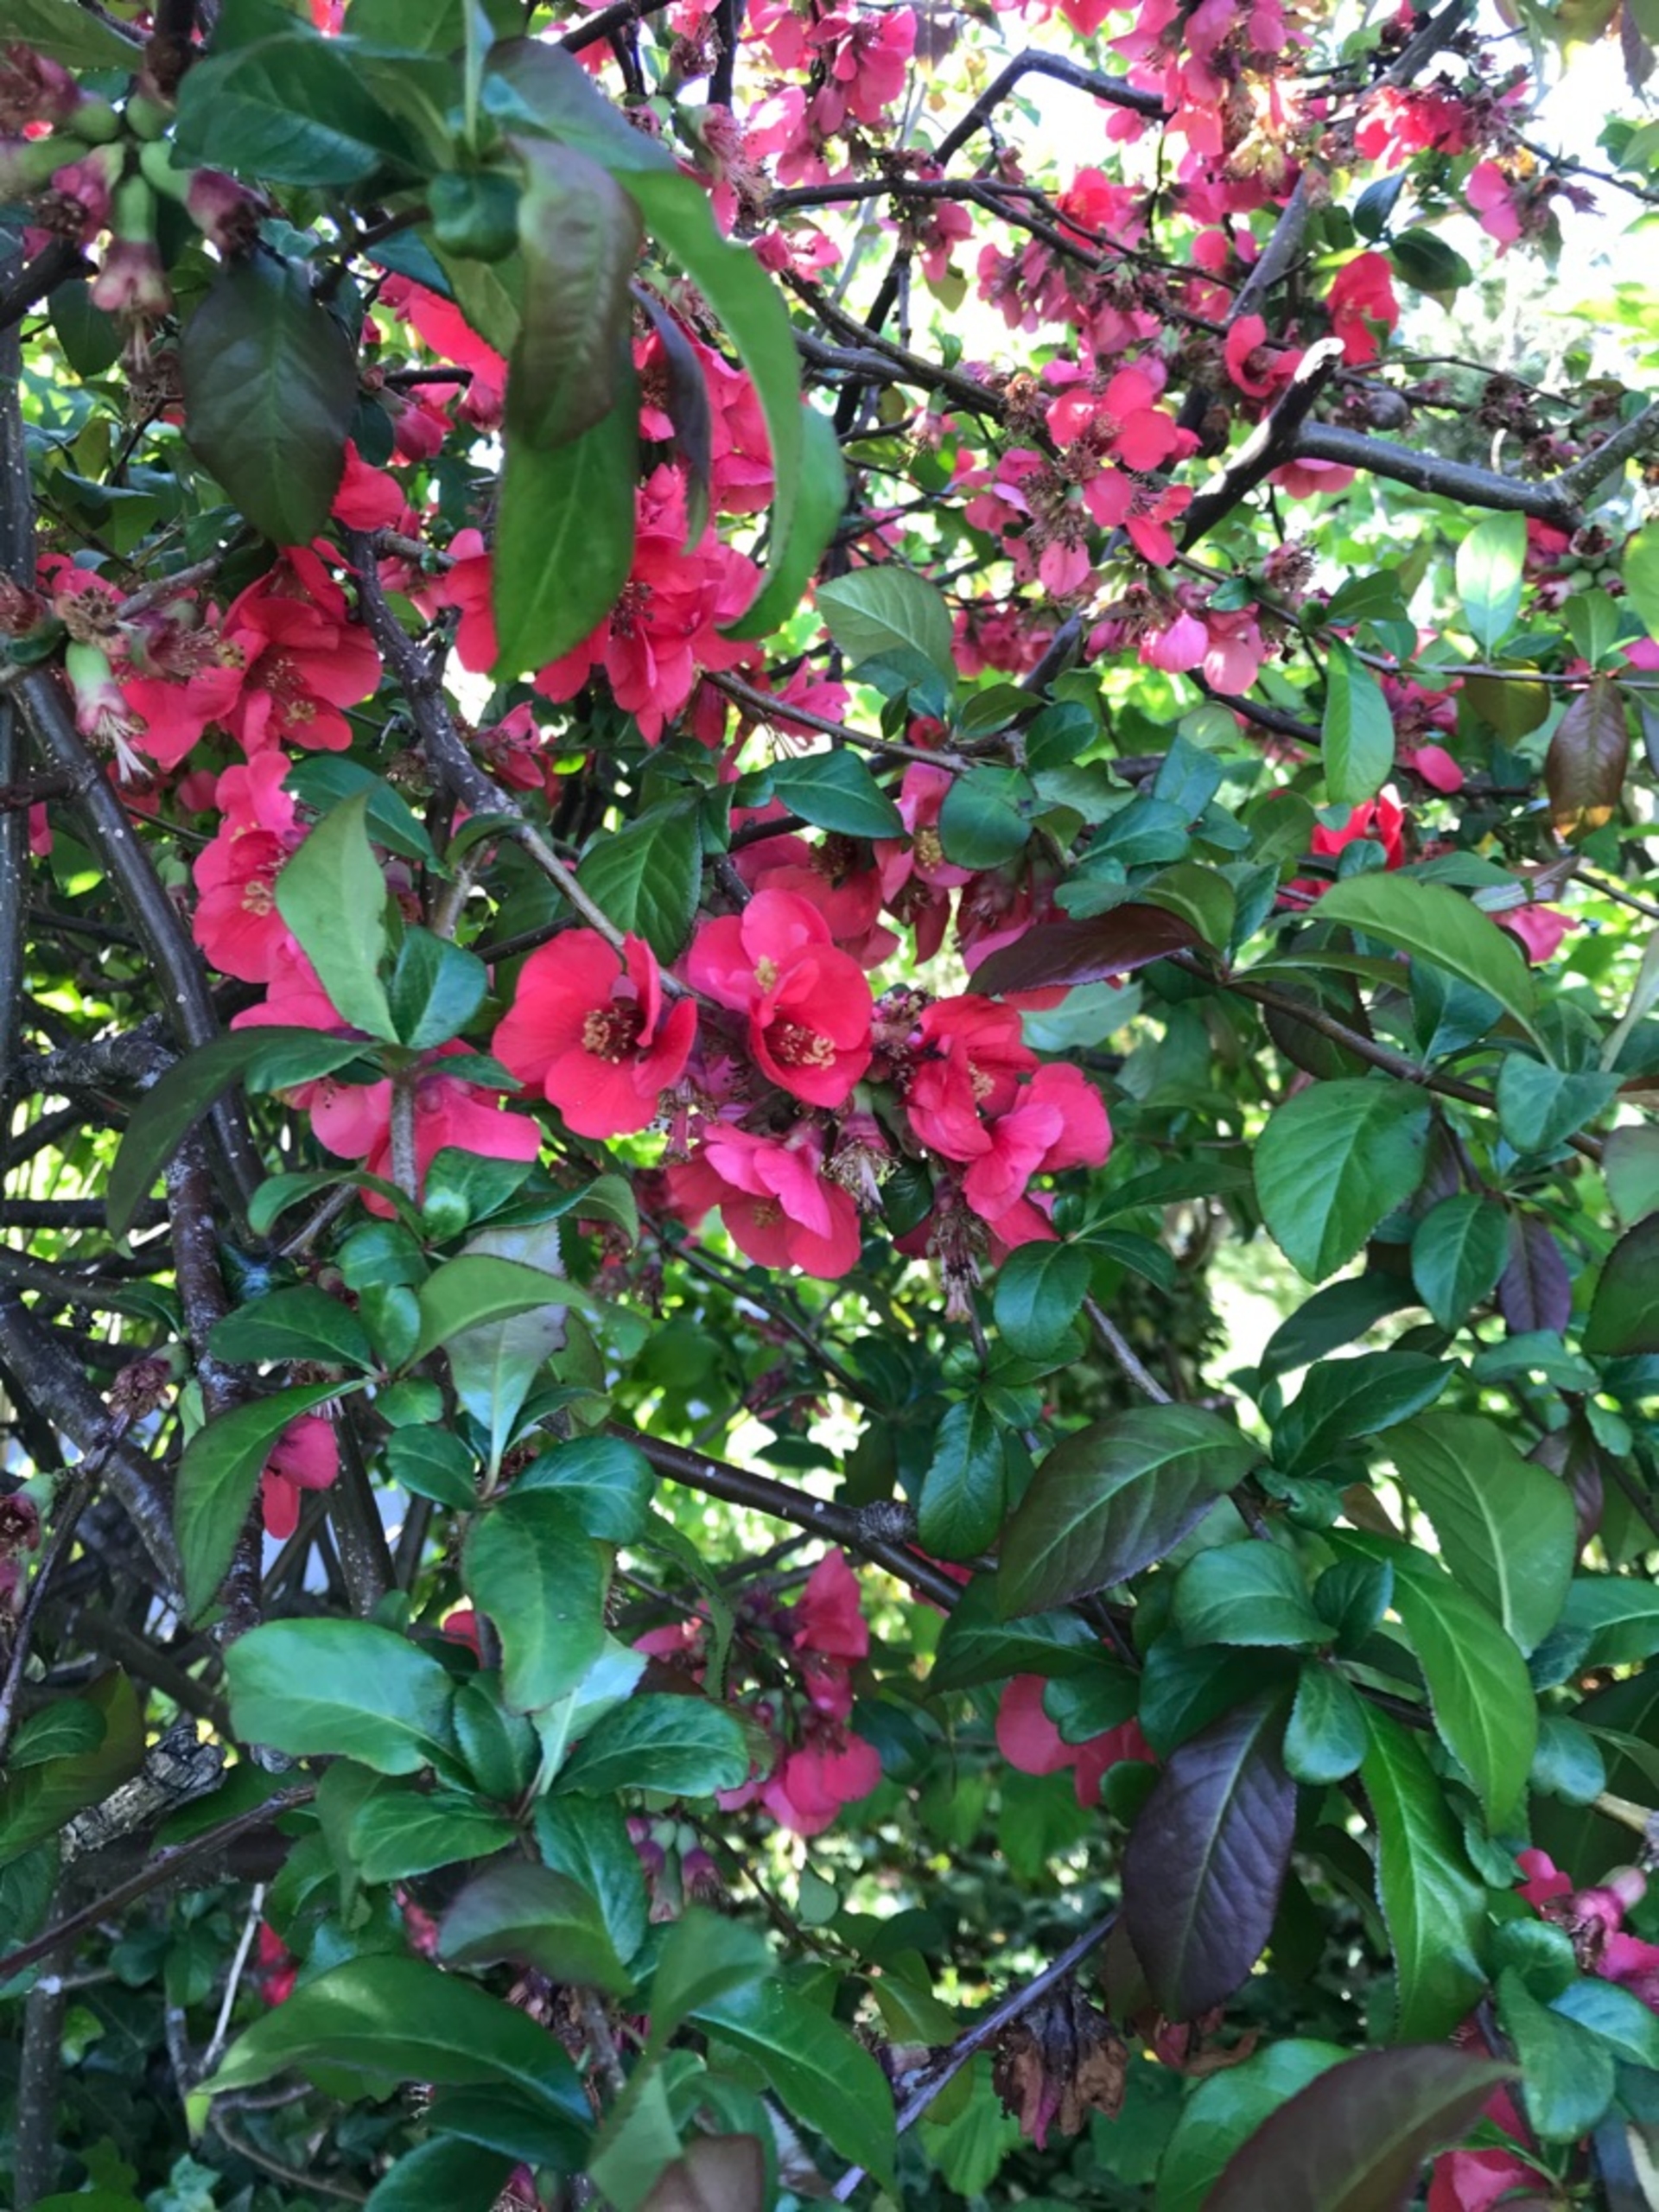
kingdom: Plantae
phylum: Tracheophyta
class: Magnoliopsida
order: Rosales
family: Rosaceae
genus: Malus
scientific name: Malus purpurea
